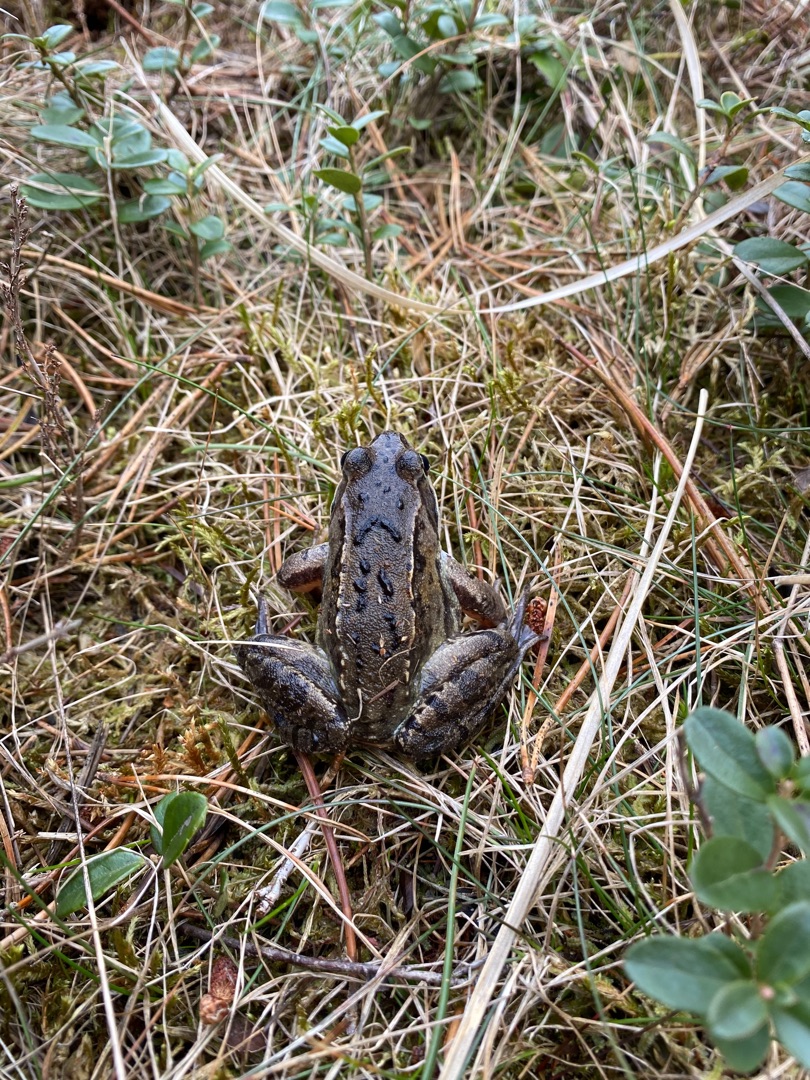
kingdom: Animalia
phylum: Chordata
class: Amphibia
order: Anura
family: Ranidae
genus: Rana
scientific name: Rana temporaria
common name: Butsnudet frø
